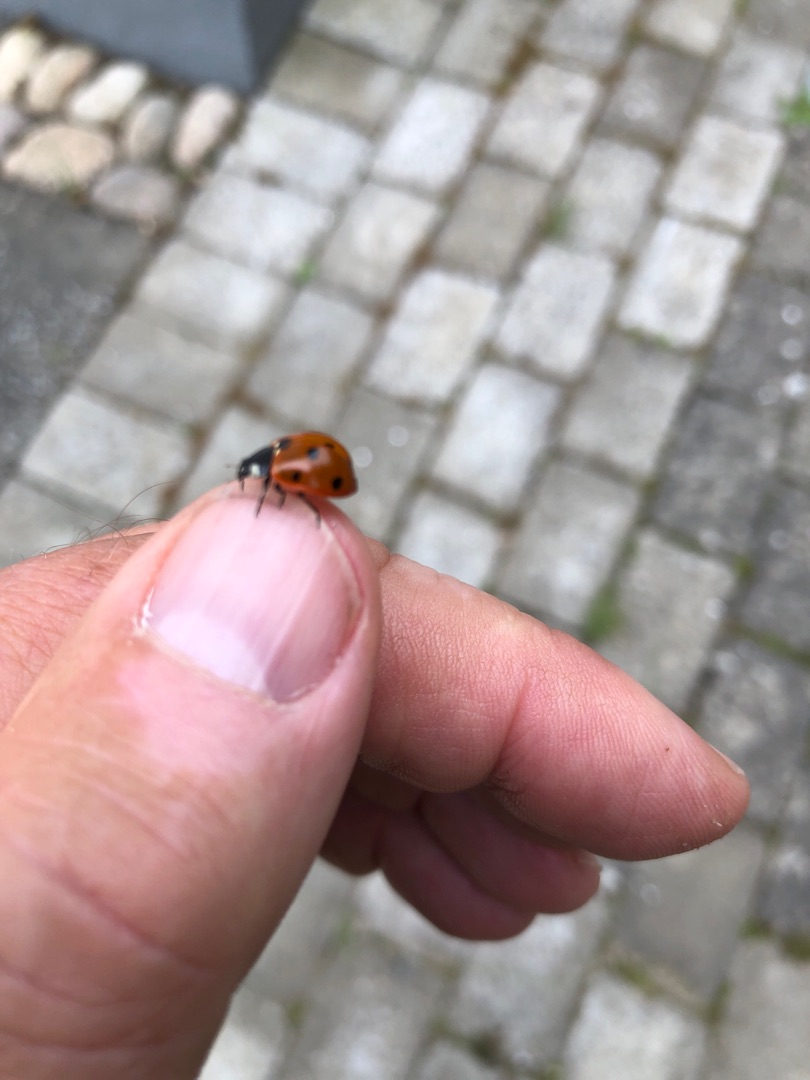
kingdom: Animalia
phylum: Arthropoda
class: Insecta
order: Coleoptera
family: Coccinellidae
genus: Coccinella
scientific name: Coccinella septempunctata
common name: Syvplettet mariehøne
